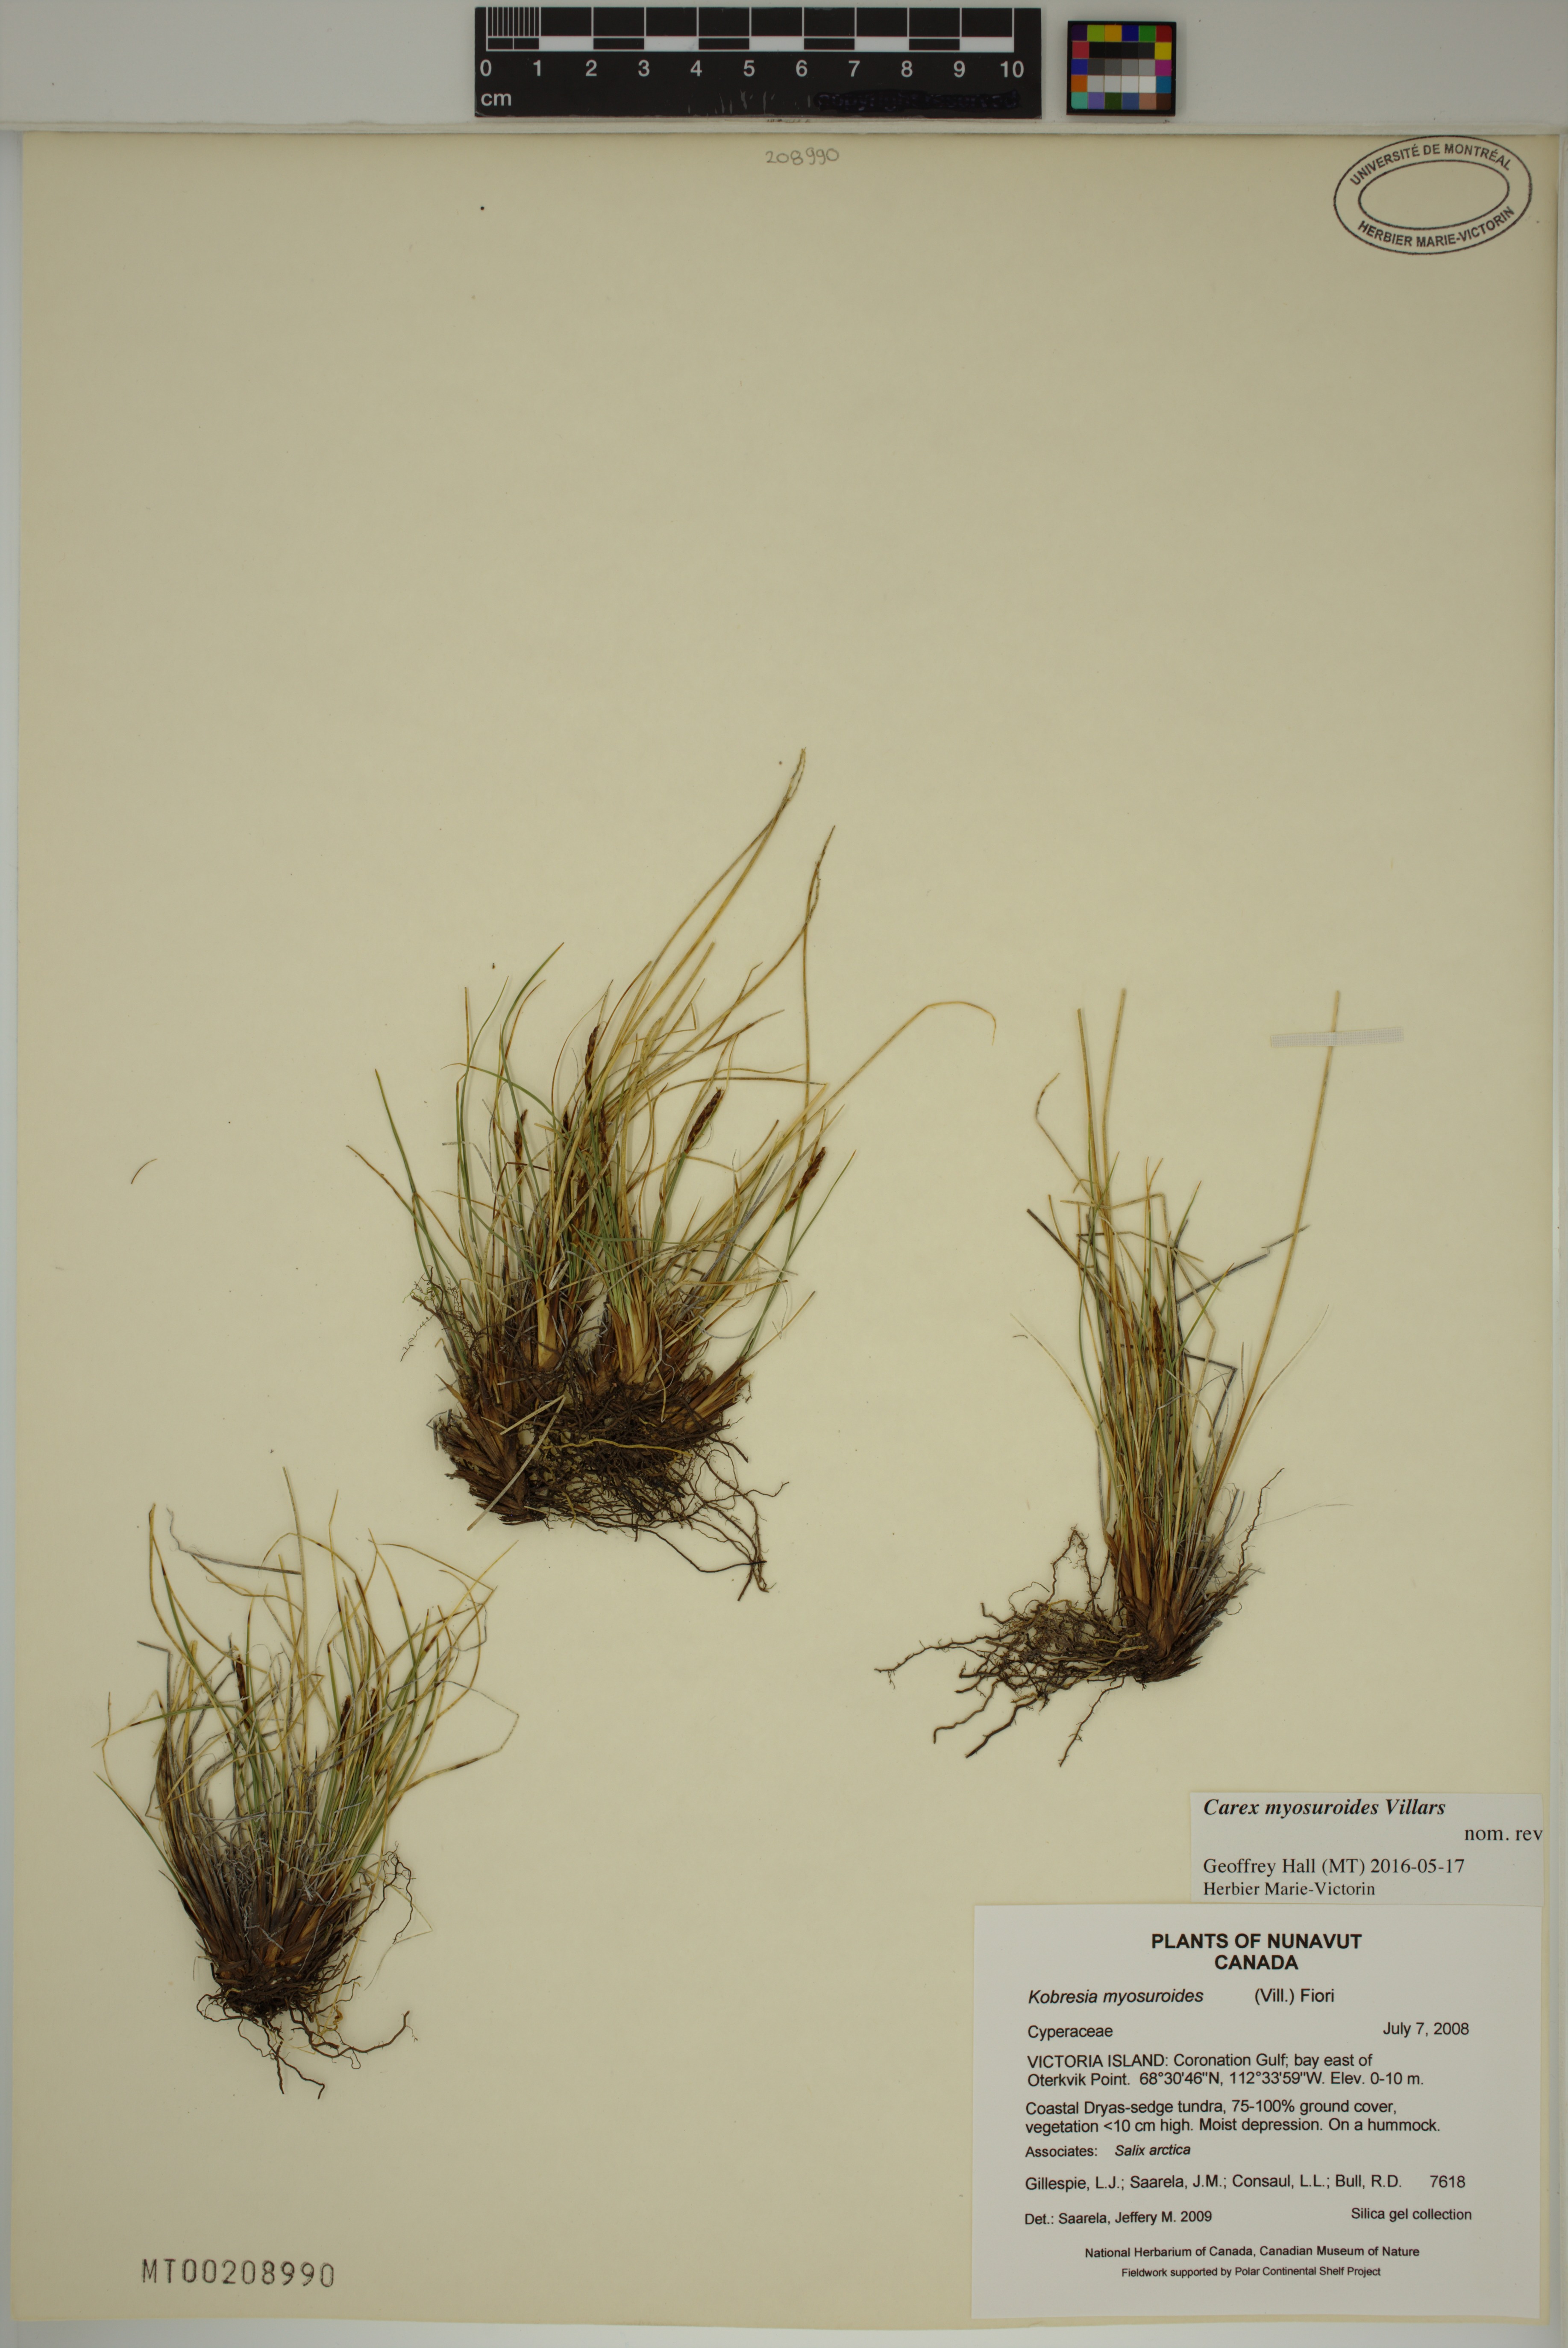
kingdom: Plantae
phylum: Tracheophyta
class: Liliopsida
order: Poales
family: Cyperaceae
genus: Carex
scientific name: Carex myosuroides
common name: Bellard's bog sedge
